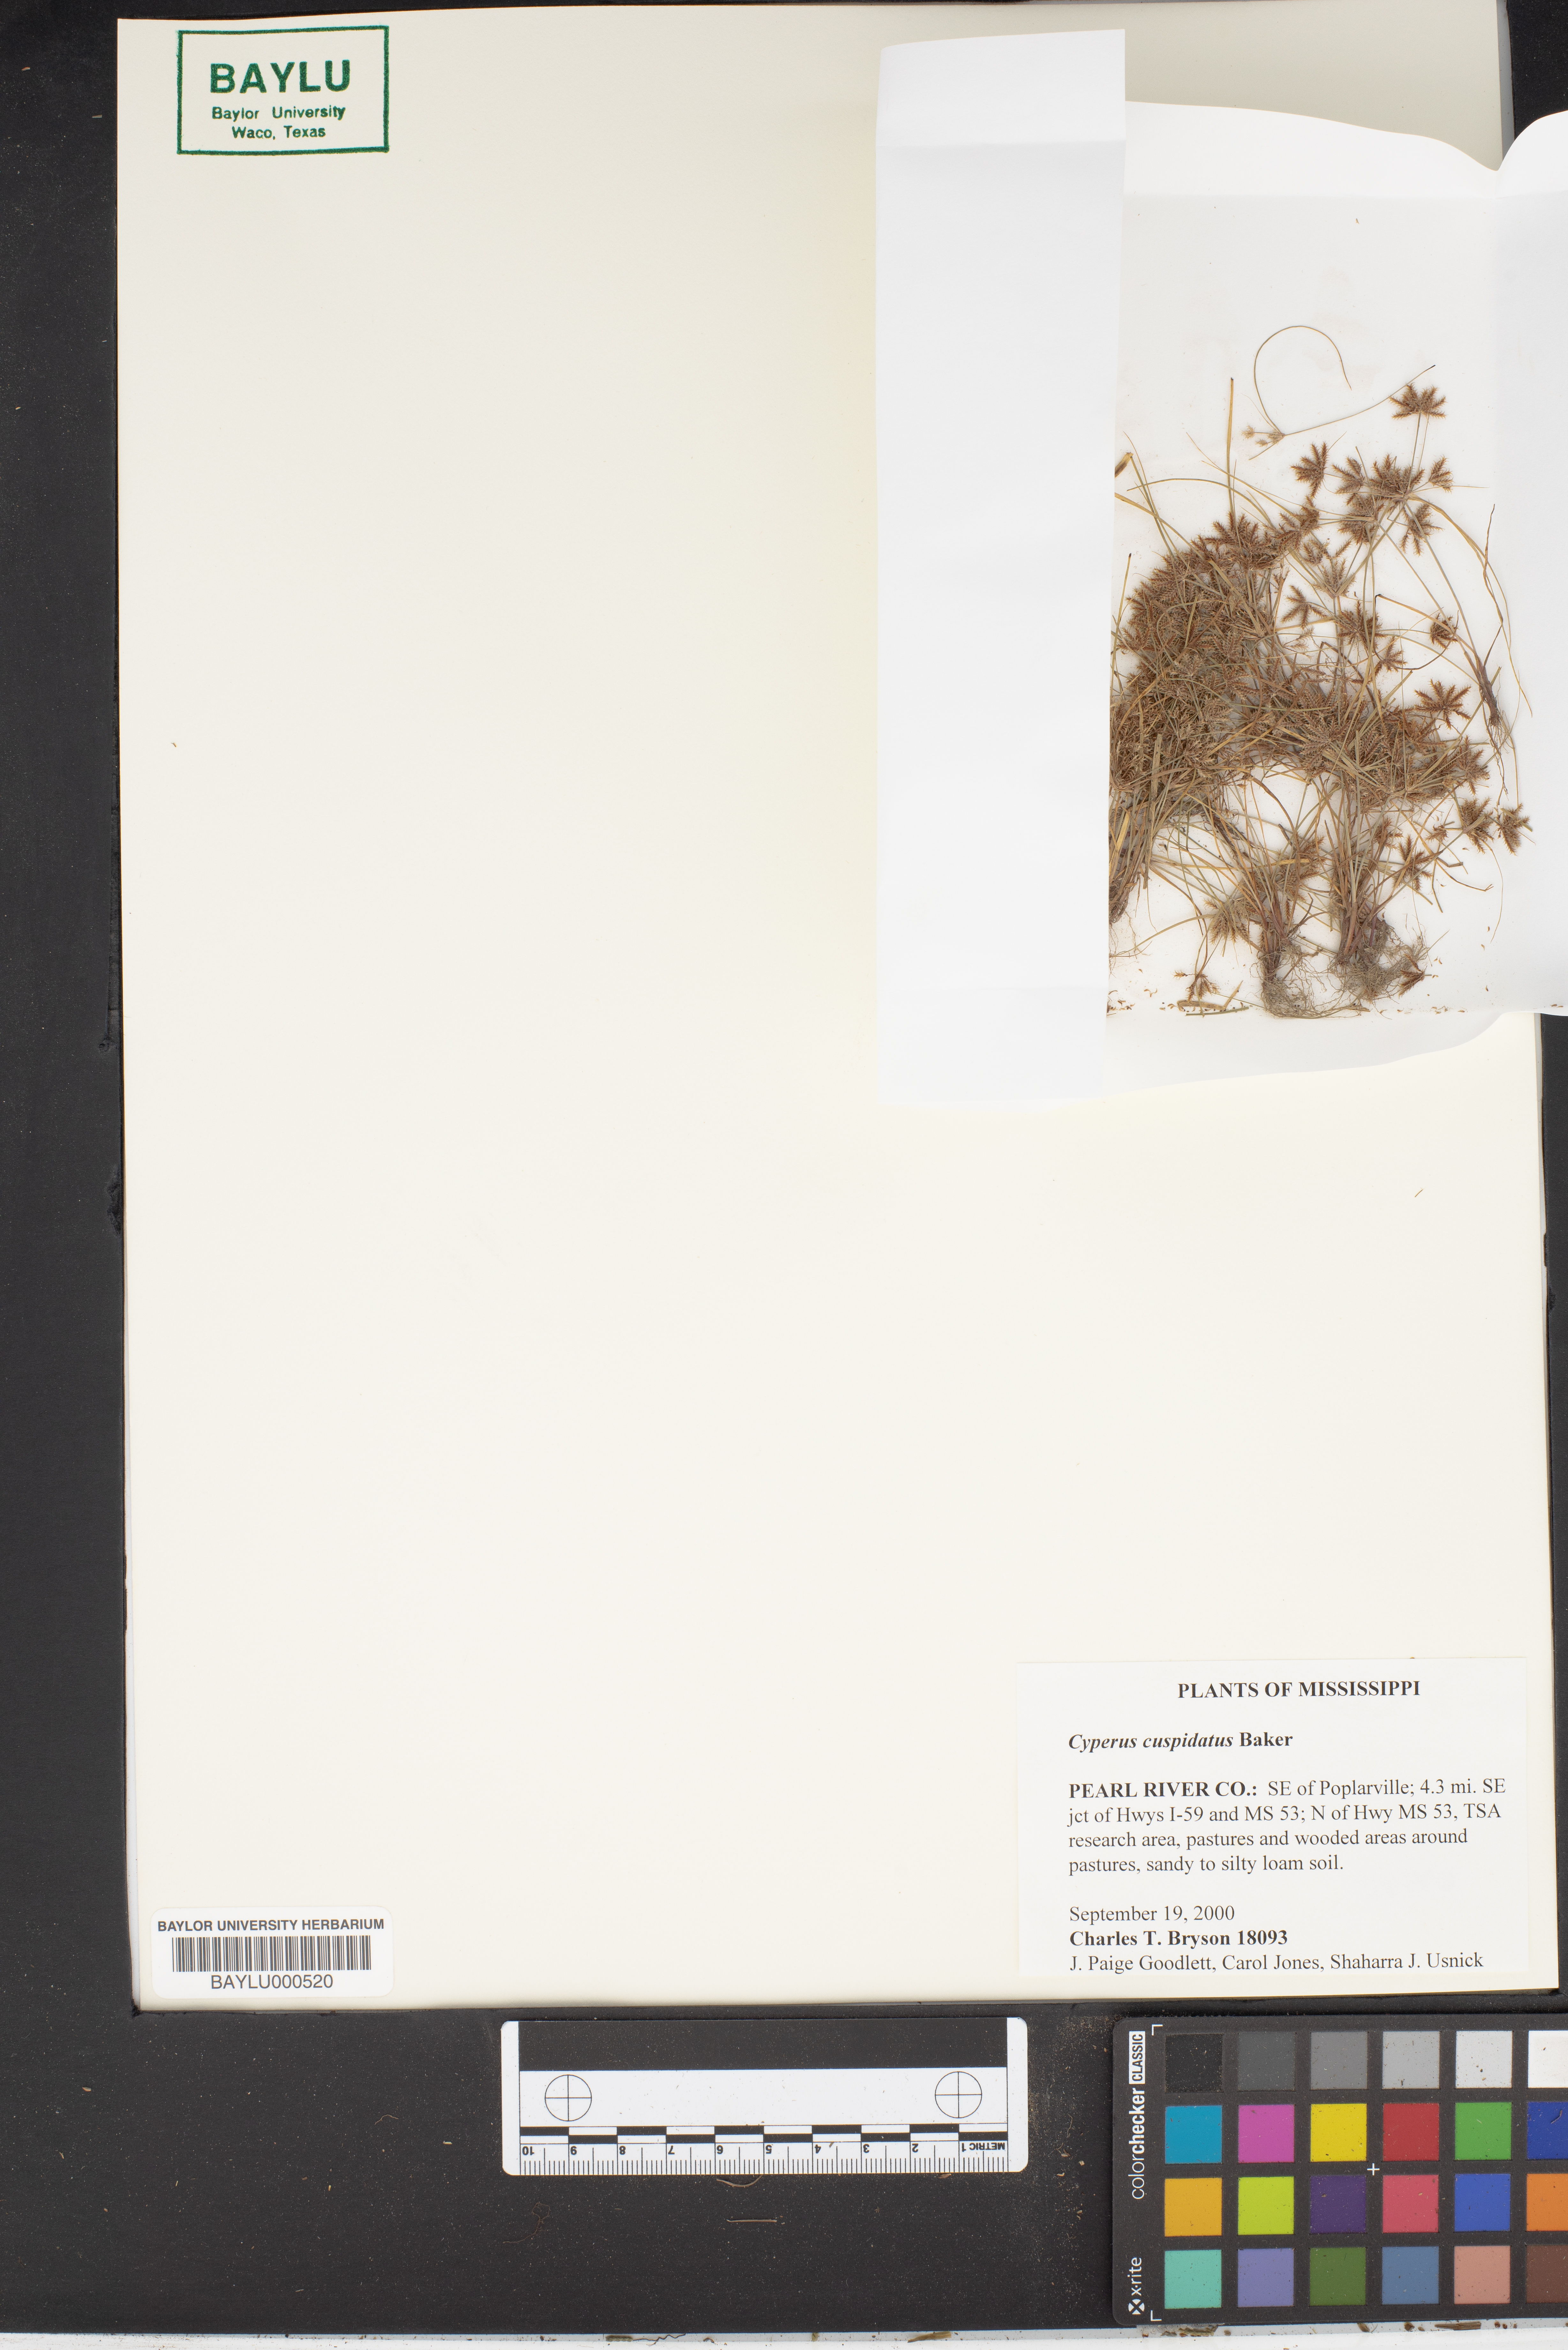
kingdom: Plantae
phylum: Tracheophyta
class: Liliopsida
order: Poales
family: Cyperaceae
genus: Cyperus
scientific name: Cyperus cuspidatus
